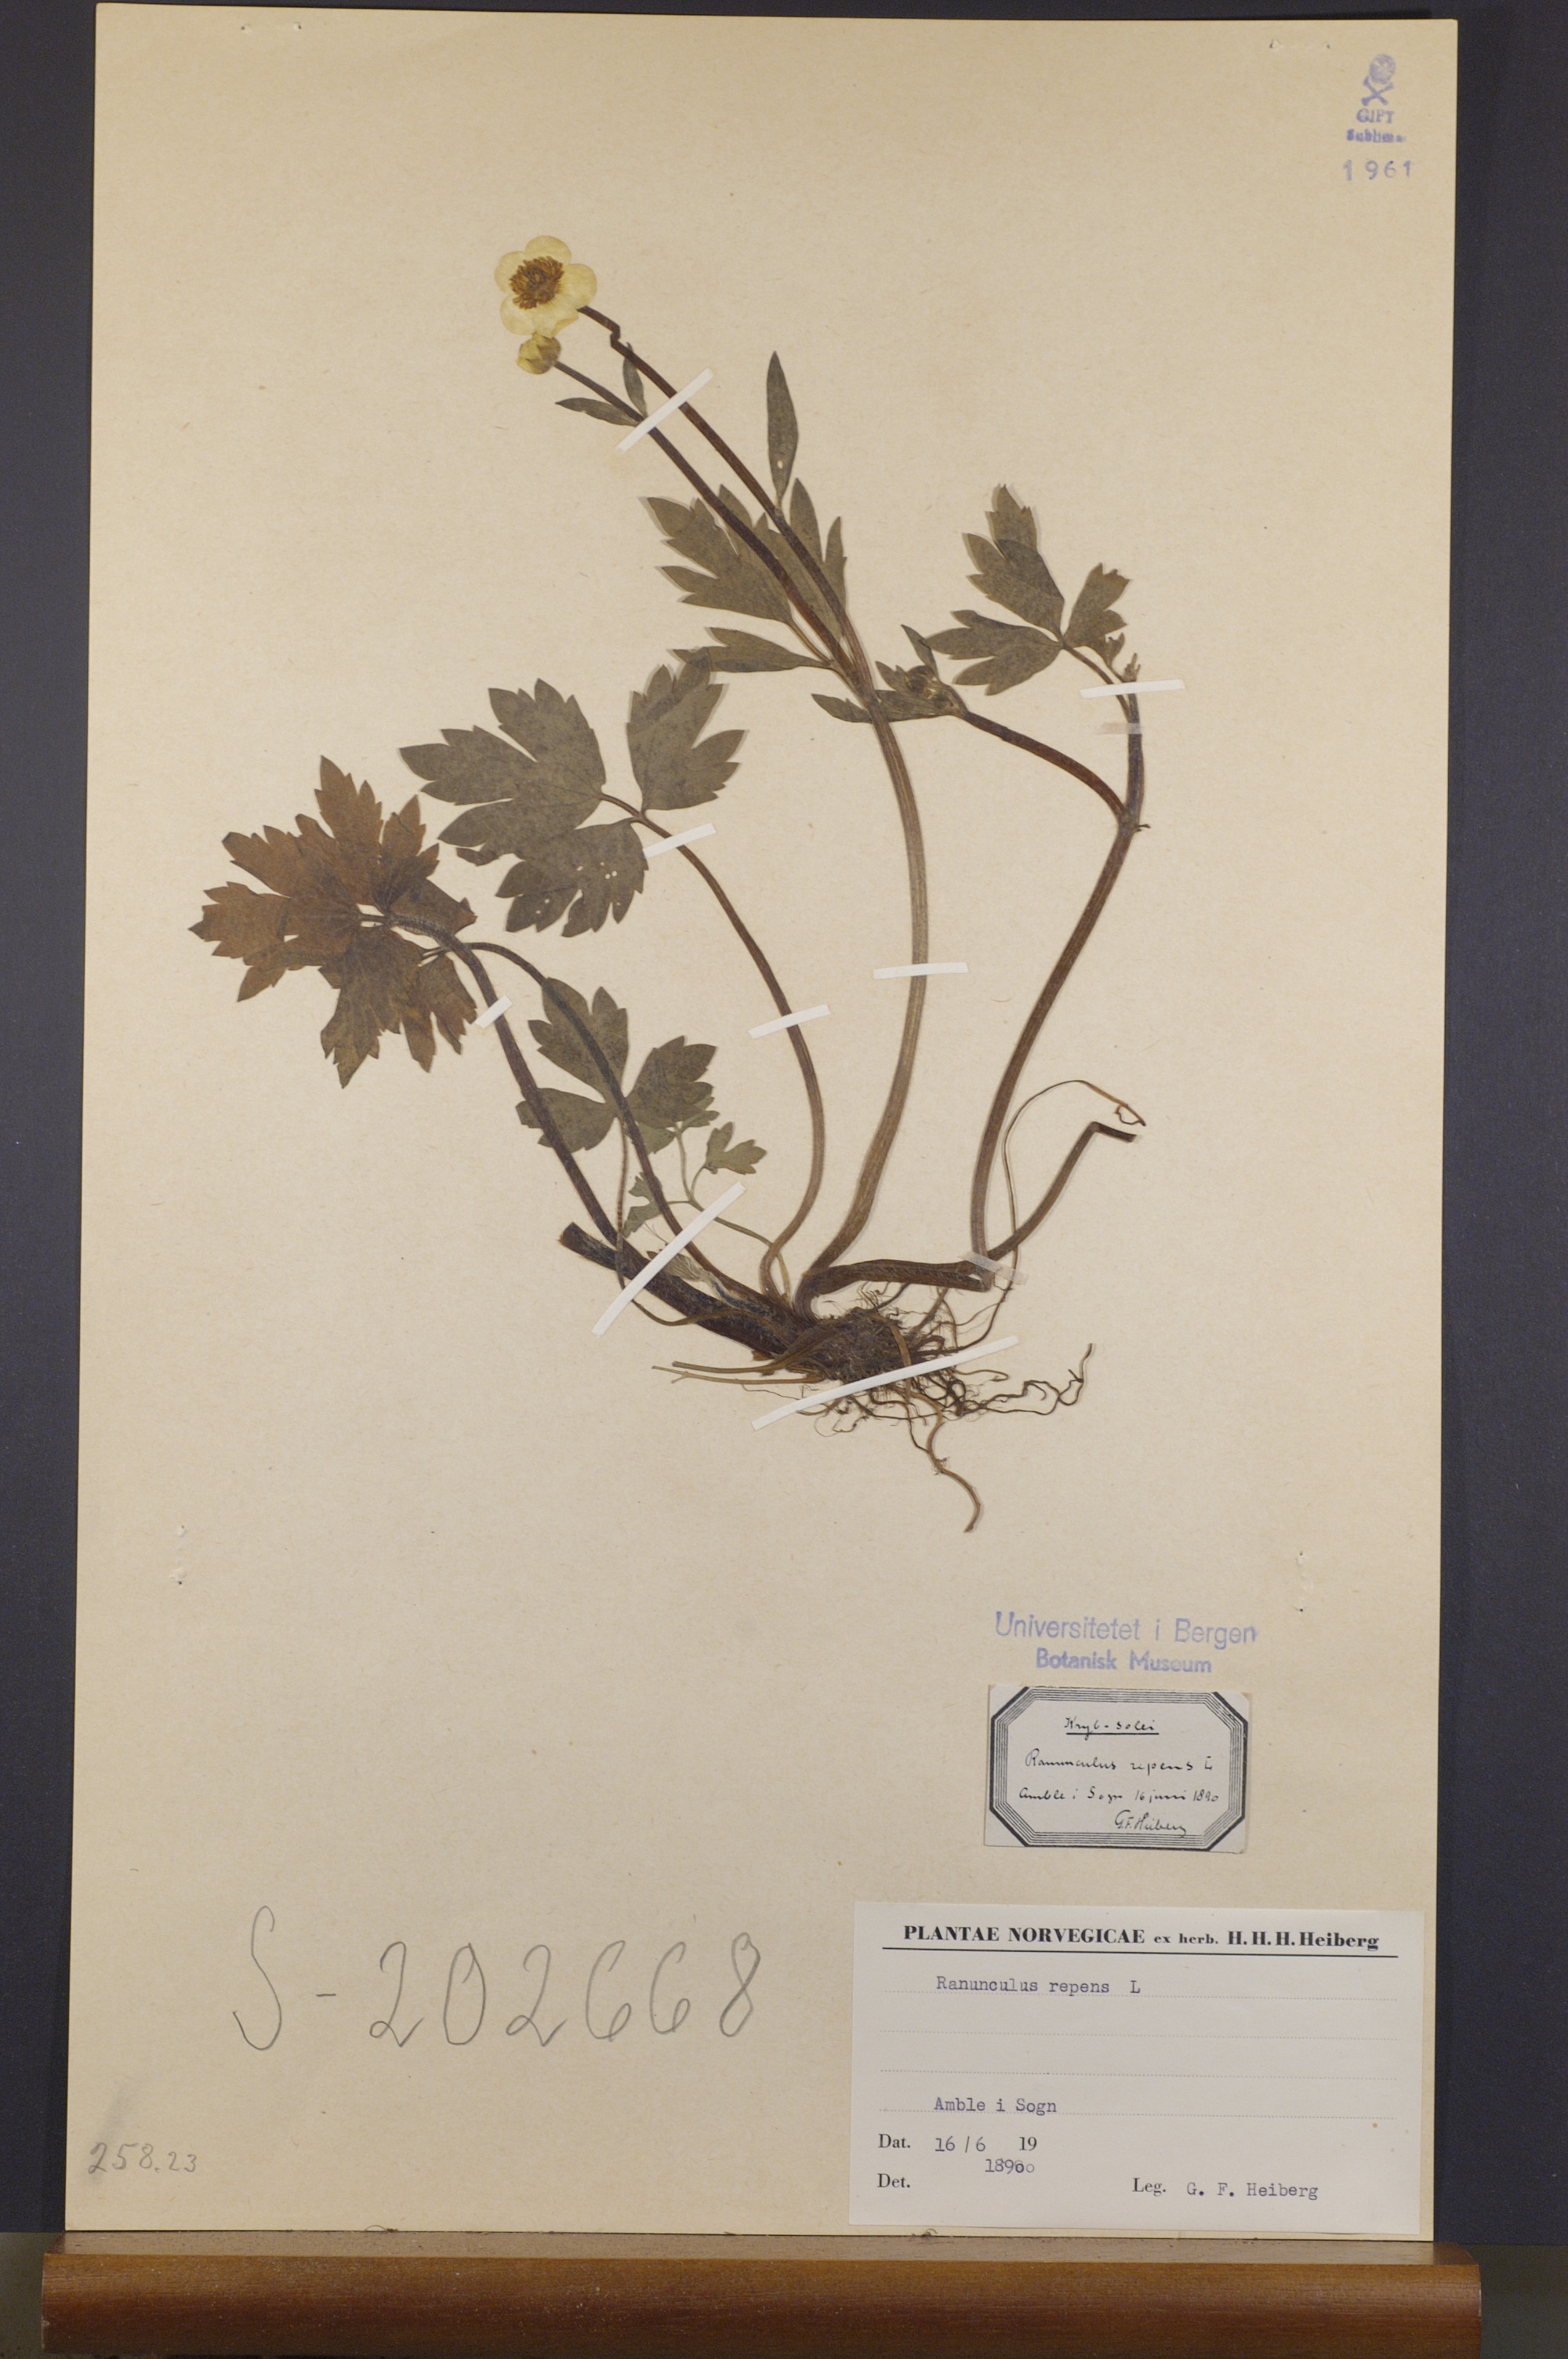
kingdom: Plantae
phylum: Tracheophyta
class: Magnoliopsida
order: Ranunculales
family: Ranunculaceae
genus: Ranunculus
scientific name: Ranunculus repens
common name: Creeping buttercup
